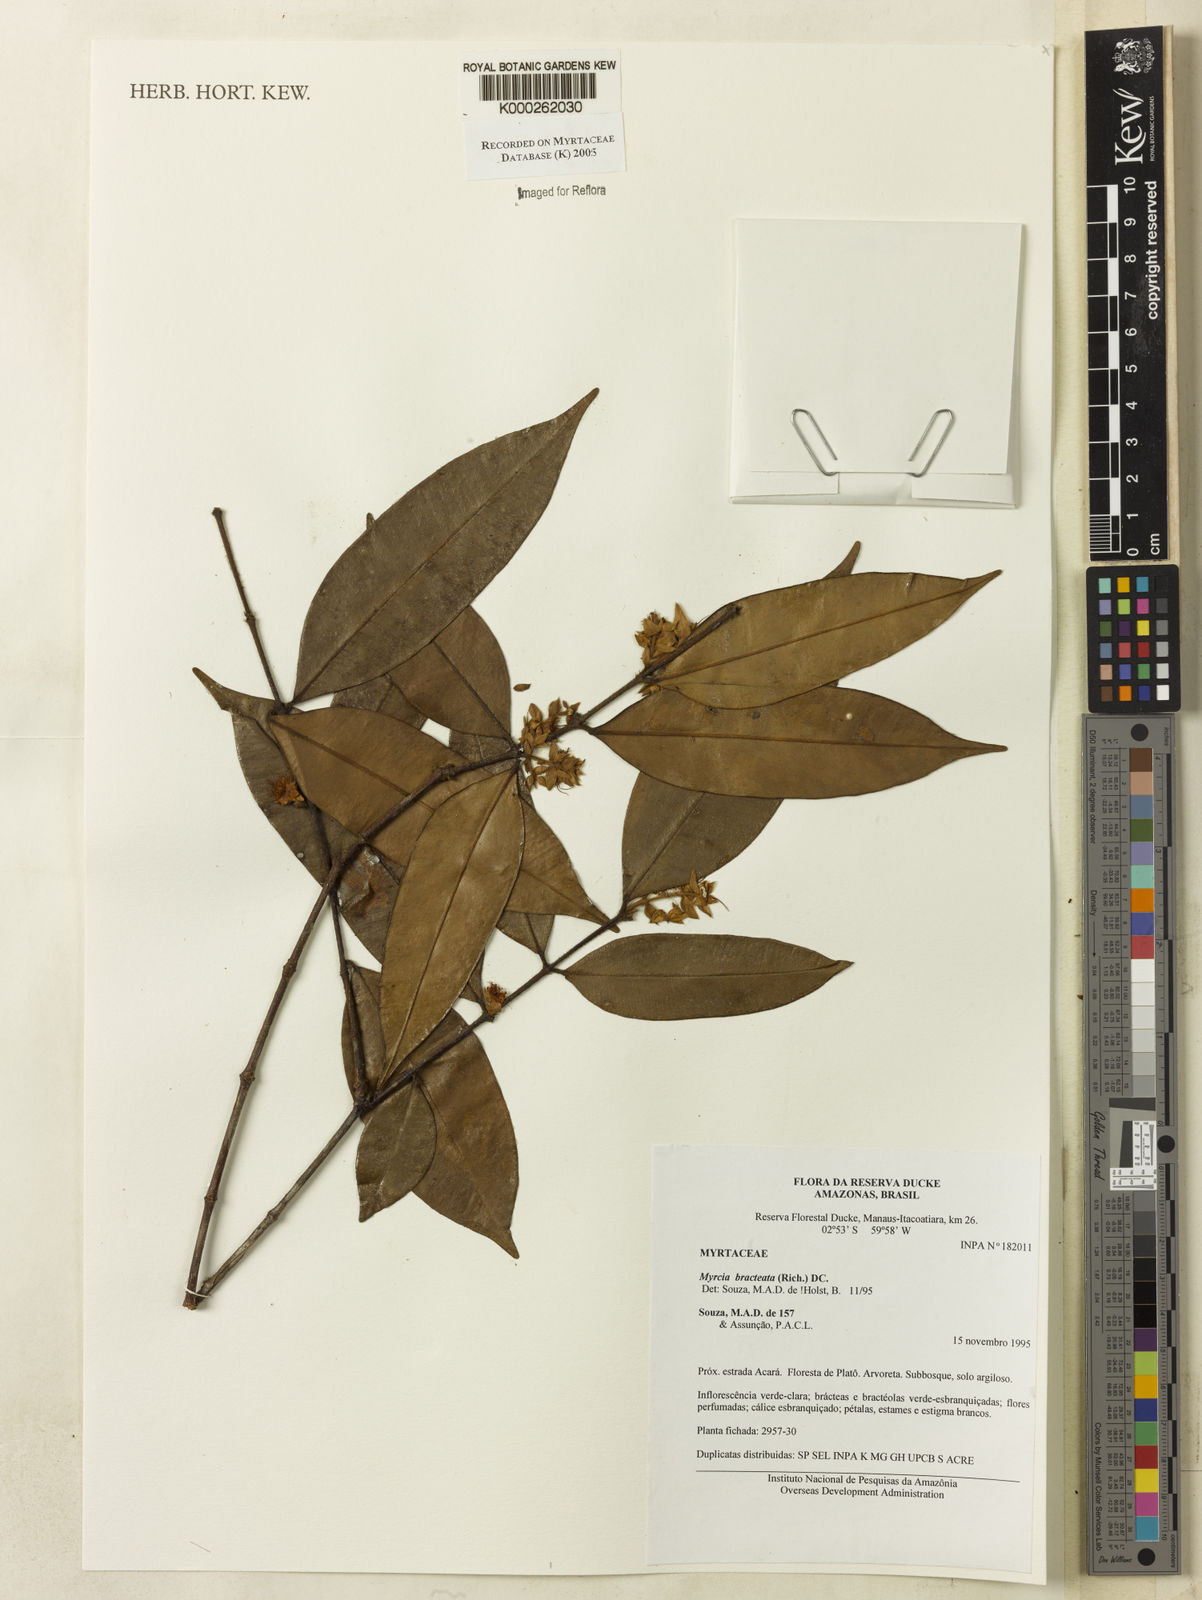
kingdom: Plantae
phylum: Tracheophyta
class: Magnoliopsida
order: Myrtales
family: Myrtaceae
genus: Myrcia
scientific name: Myrcia bracteata
